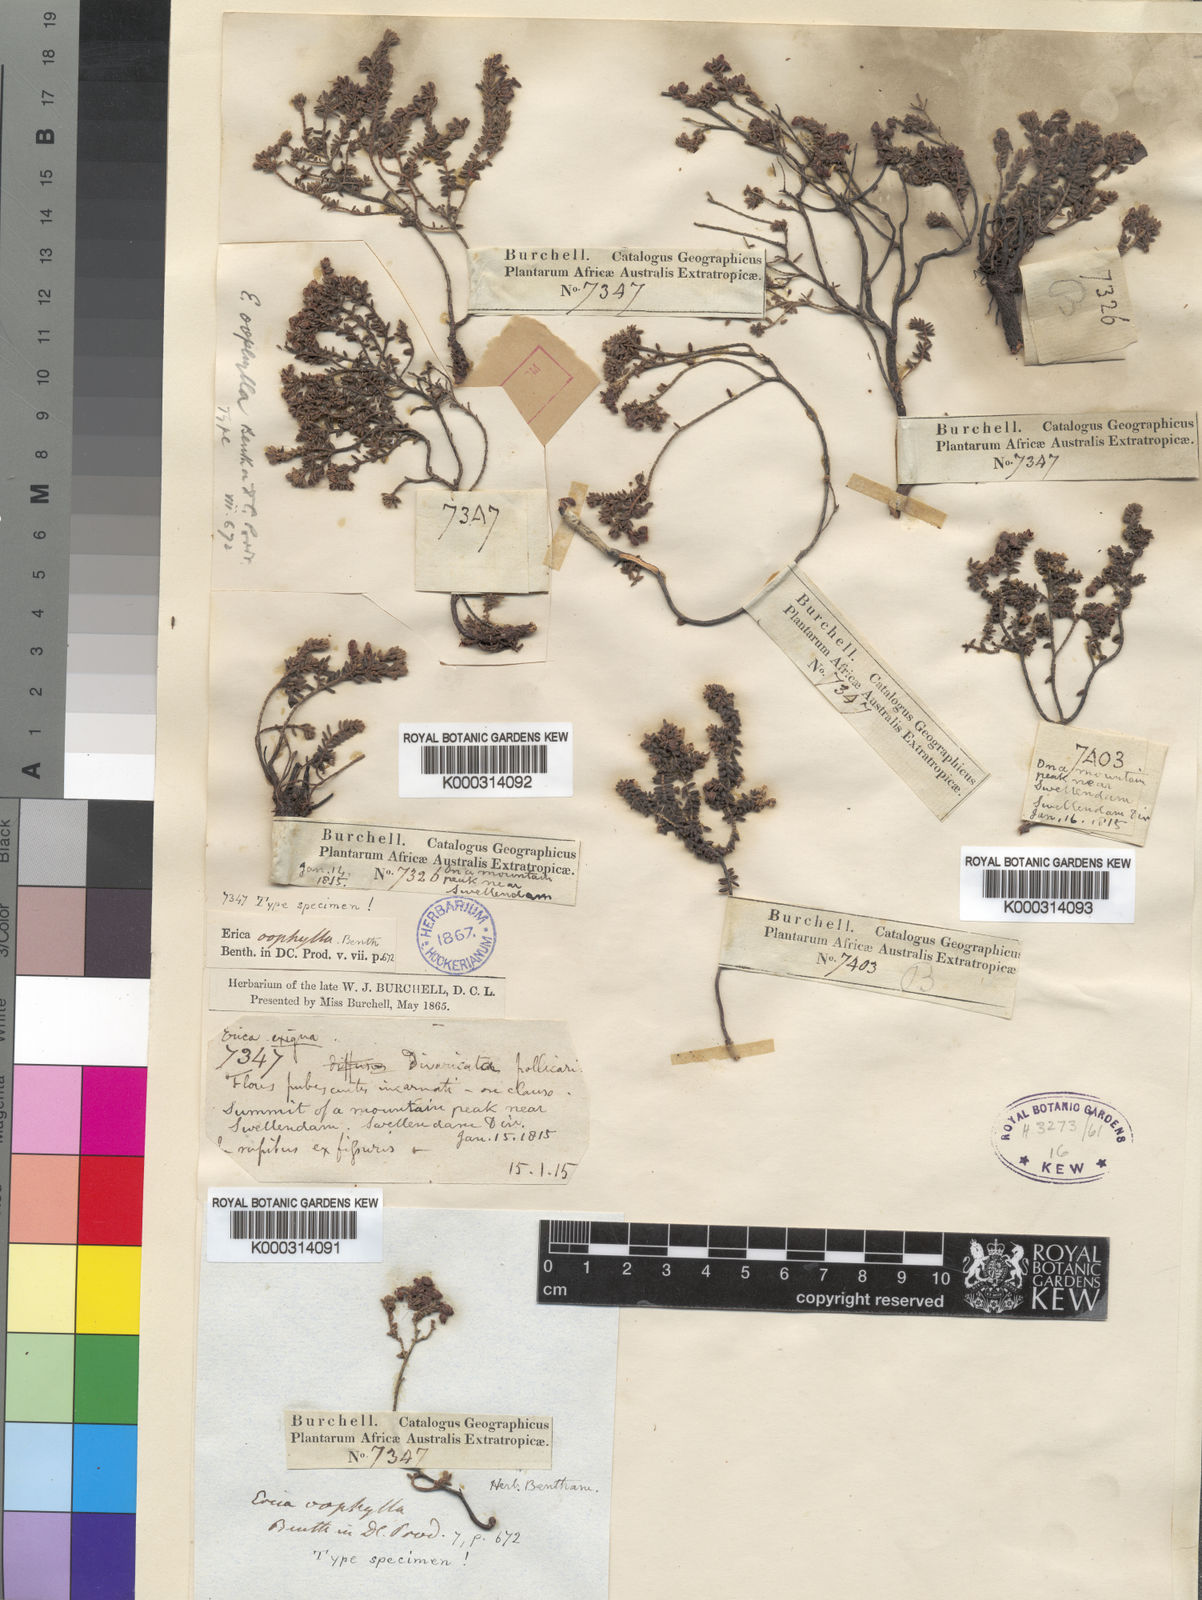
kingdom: Plantae
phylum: Tracheophyta
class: Magnoliopsida
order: Ericales
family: Ericaceae
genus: Erica
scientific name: Erica oophylla
